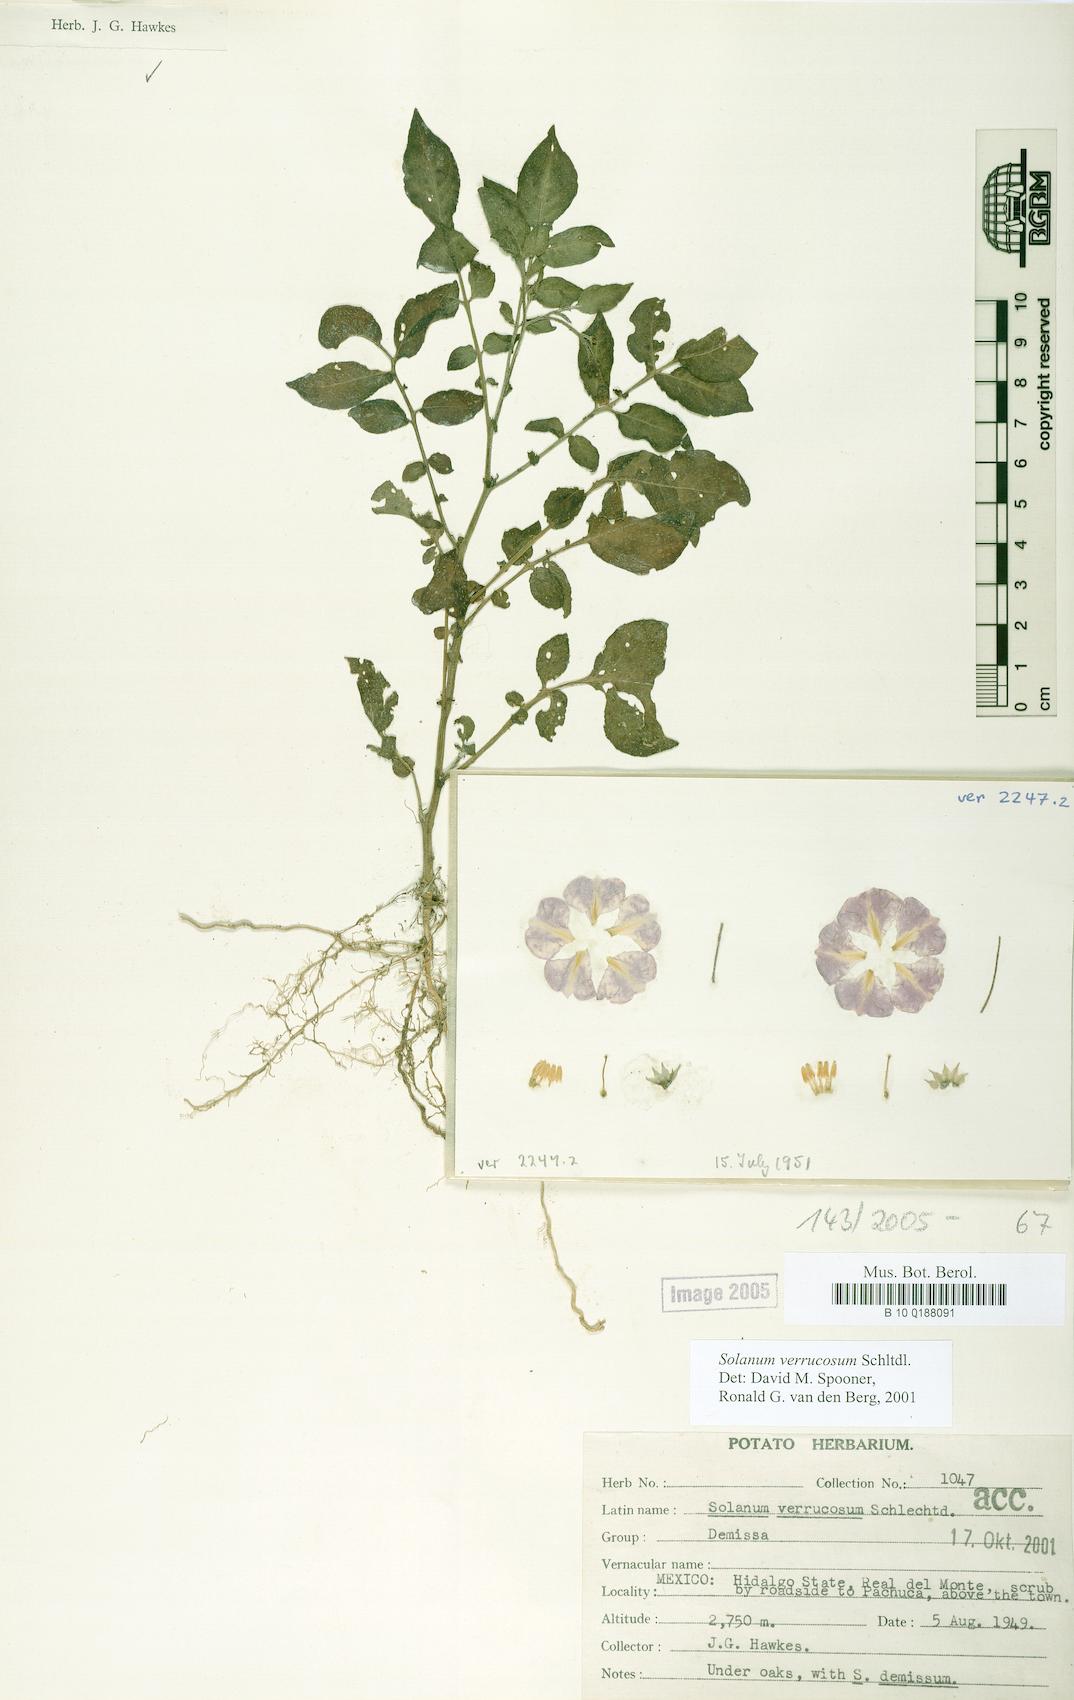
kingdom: Plantae
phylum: Tracheophyta
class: Magnoliopsida
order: Solanales
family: Solanaceae
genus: Solanum
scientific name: Solanum verrucosum
